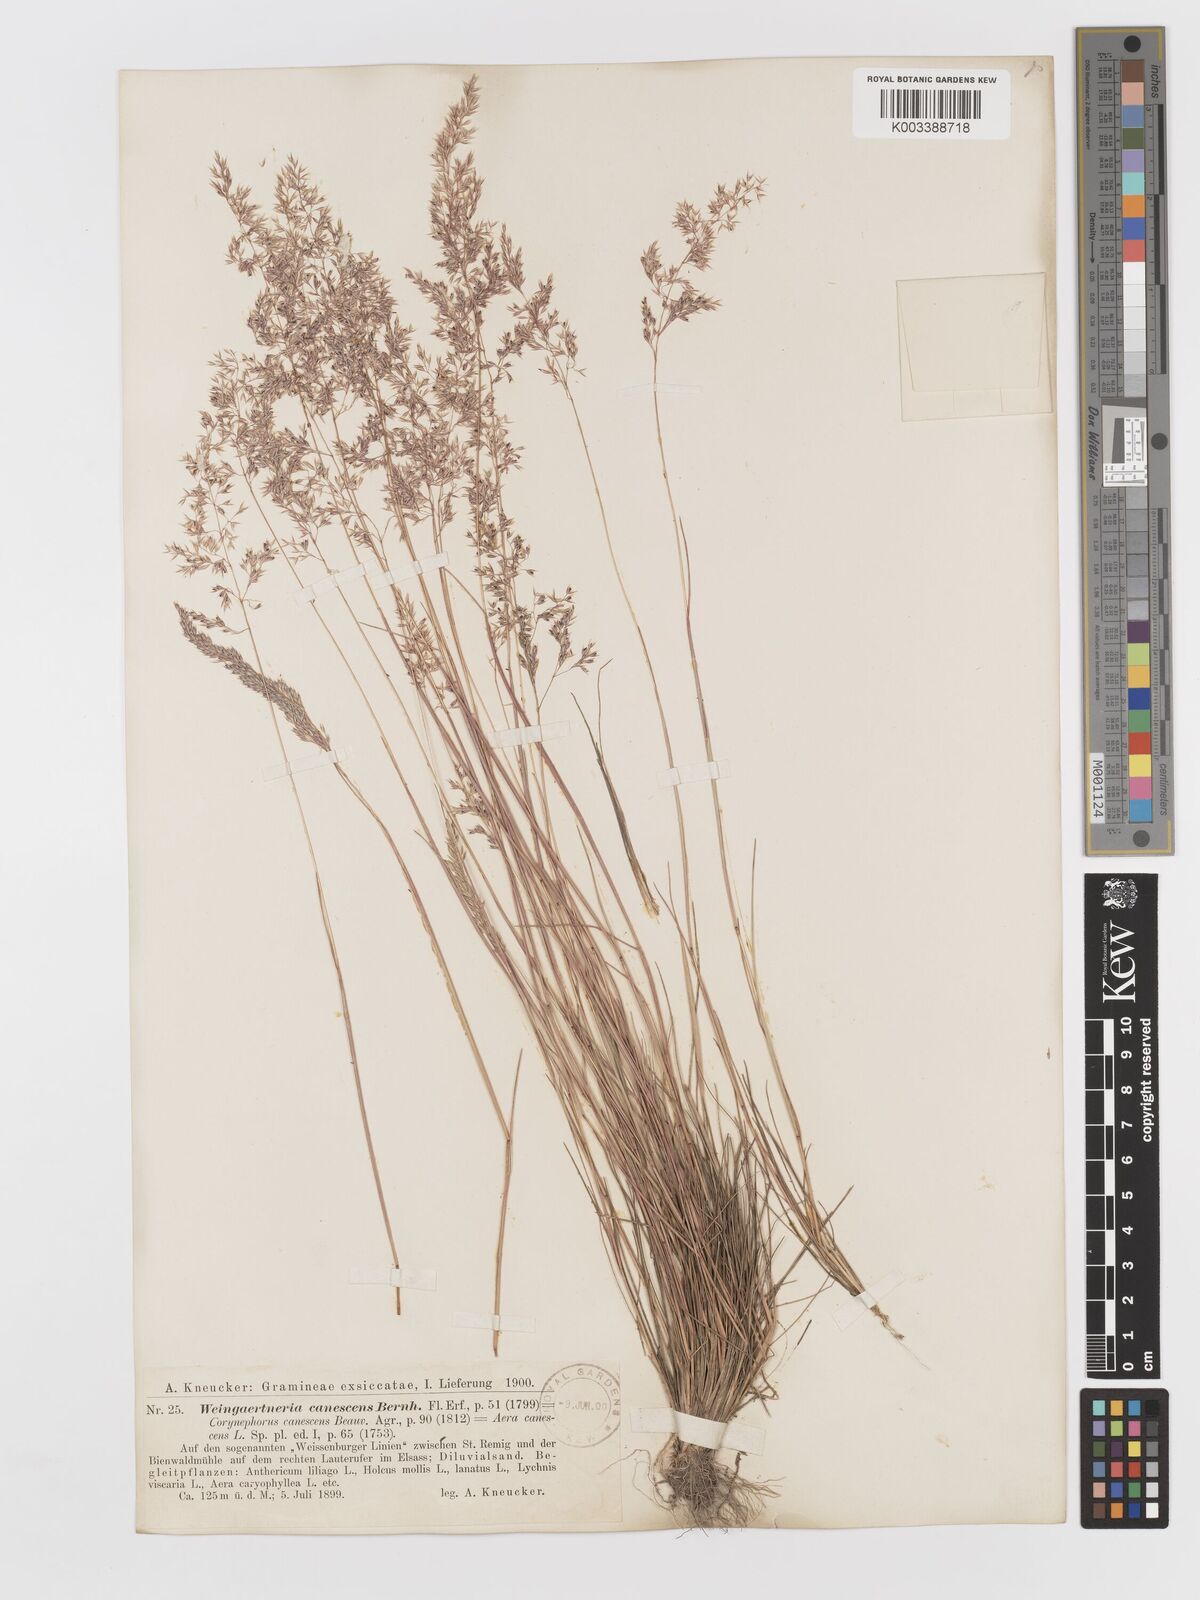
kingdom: Plantae
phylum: Tracheophyta
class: Liliopsida
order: Poales
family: Poaceae
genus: Corynephorus
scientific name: Corynephorus canescens
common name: Grey hair-grass
